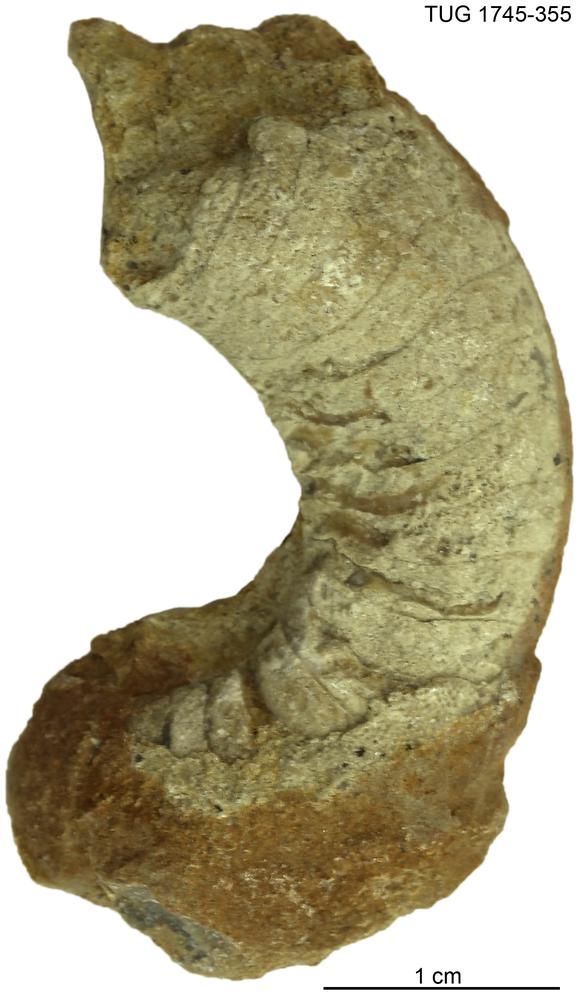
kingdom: Animalia
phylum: Mollusca
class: Cephalopoda
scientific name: Cephalopoda
